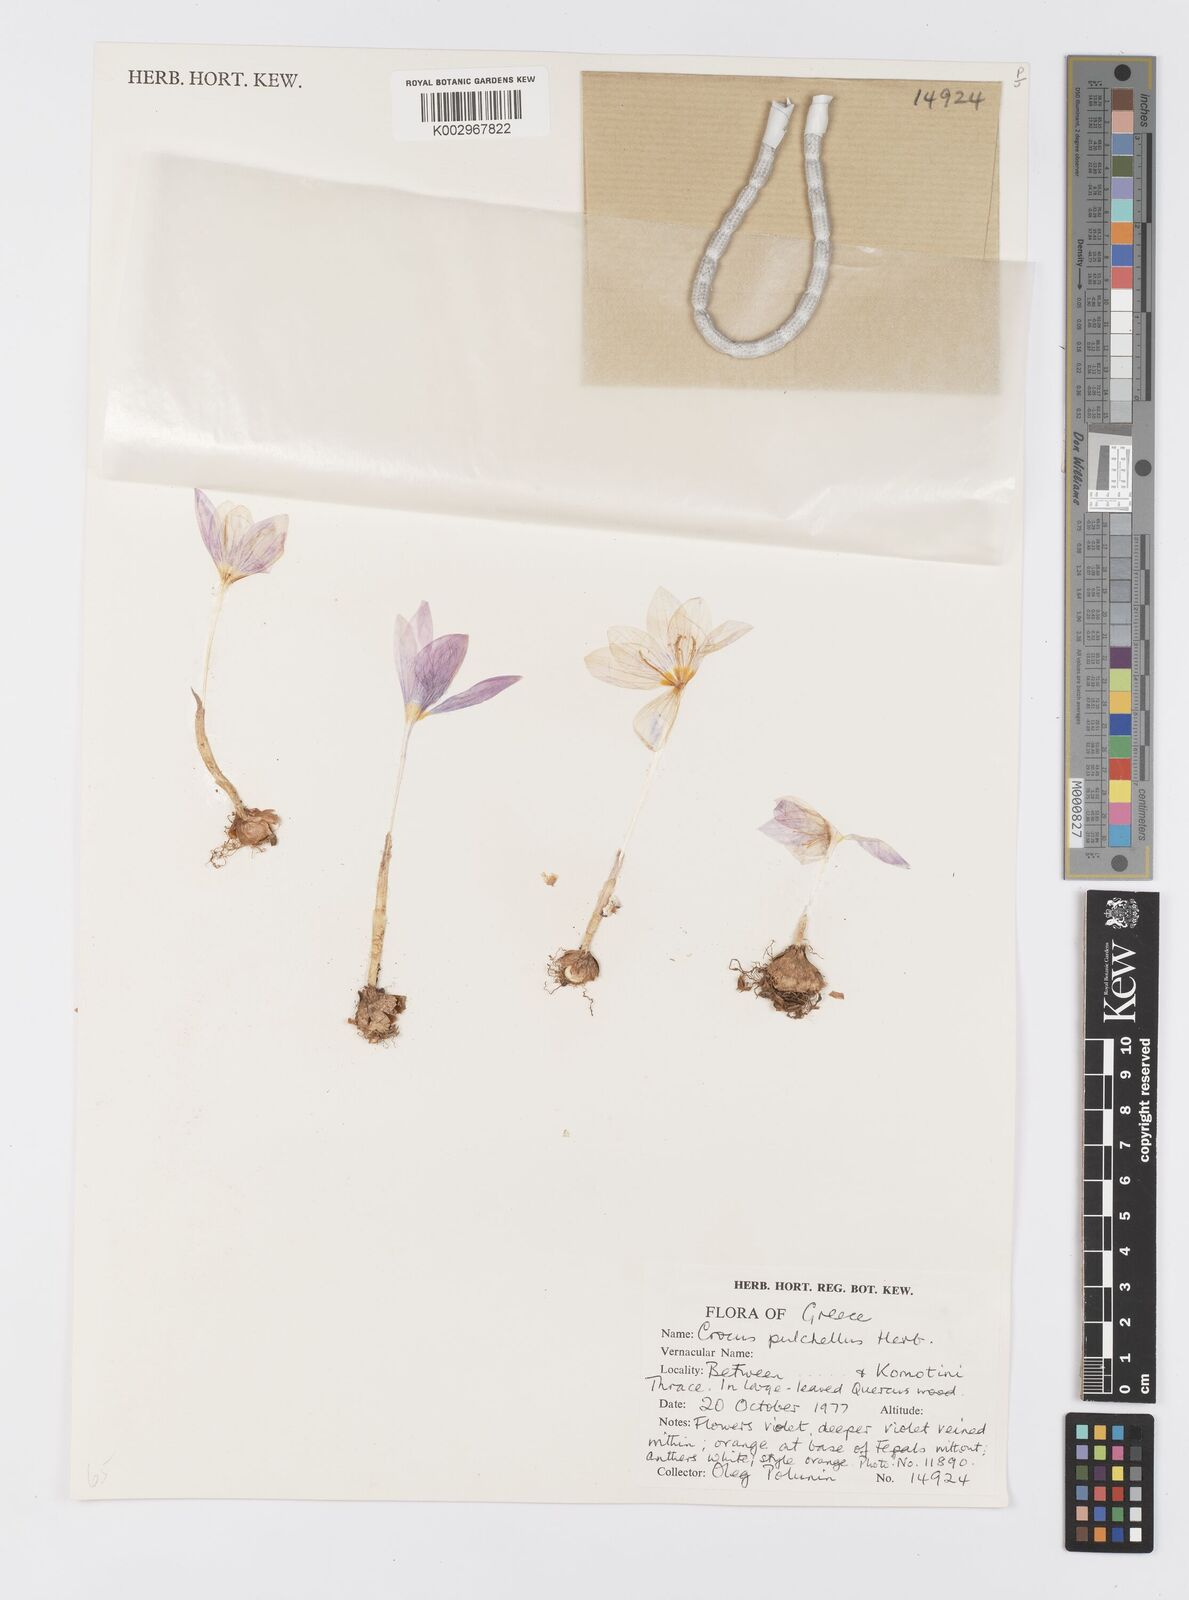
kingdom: Plantae
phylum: Tracheophyta
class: Liliopsida
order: Asparagales
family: Iridaceae
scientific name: Iridaceae
